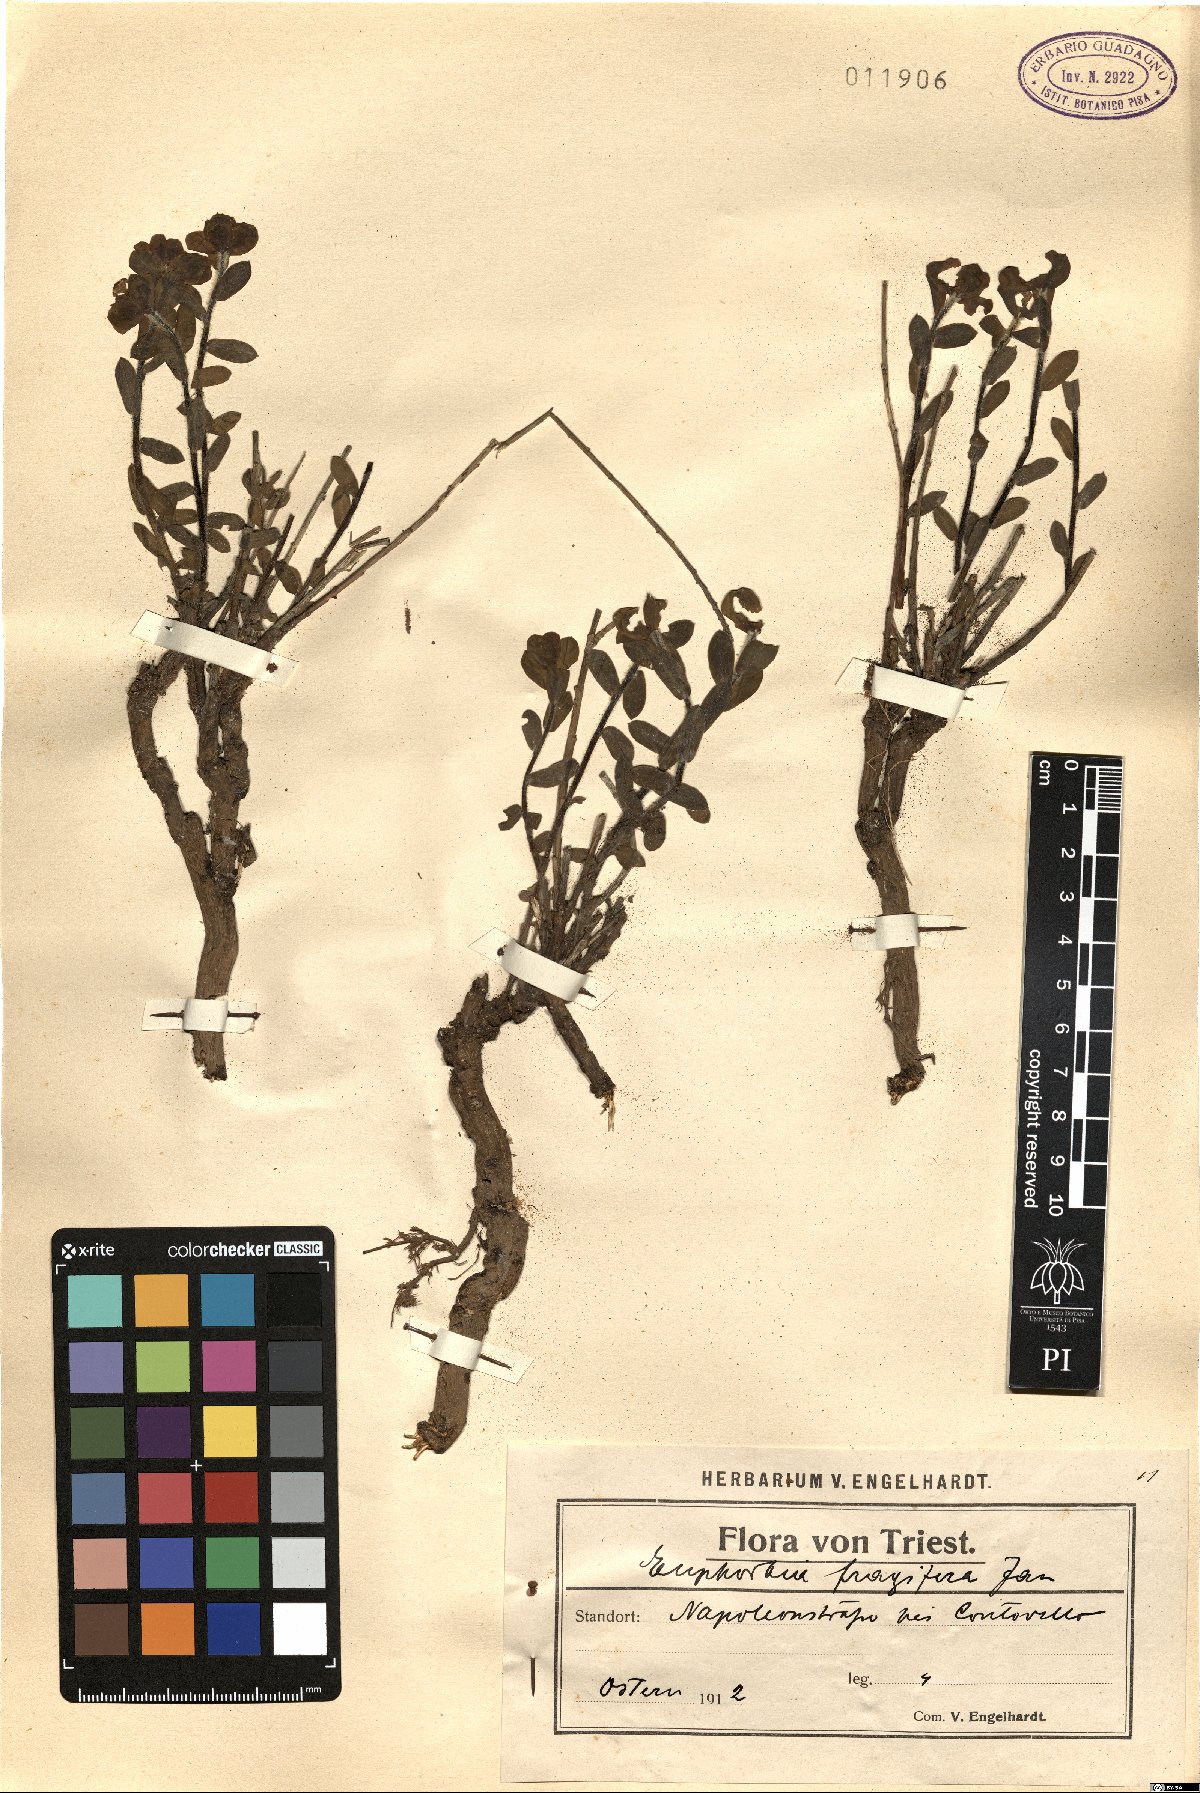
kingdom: Plantae
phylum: Tracheophyta
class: Magnoliopsida
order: Malpighiales
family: Euphorbiaceae
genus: Euphorbia
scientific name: Euphorbia fragifera
